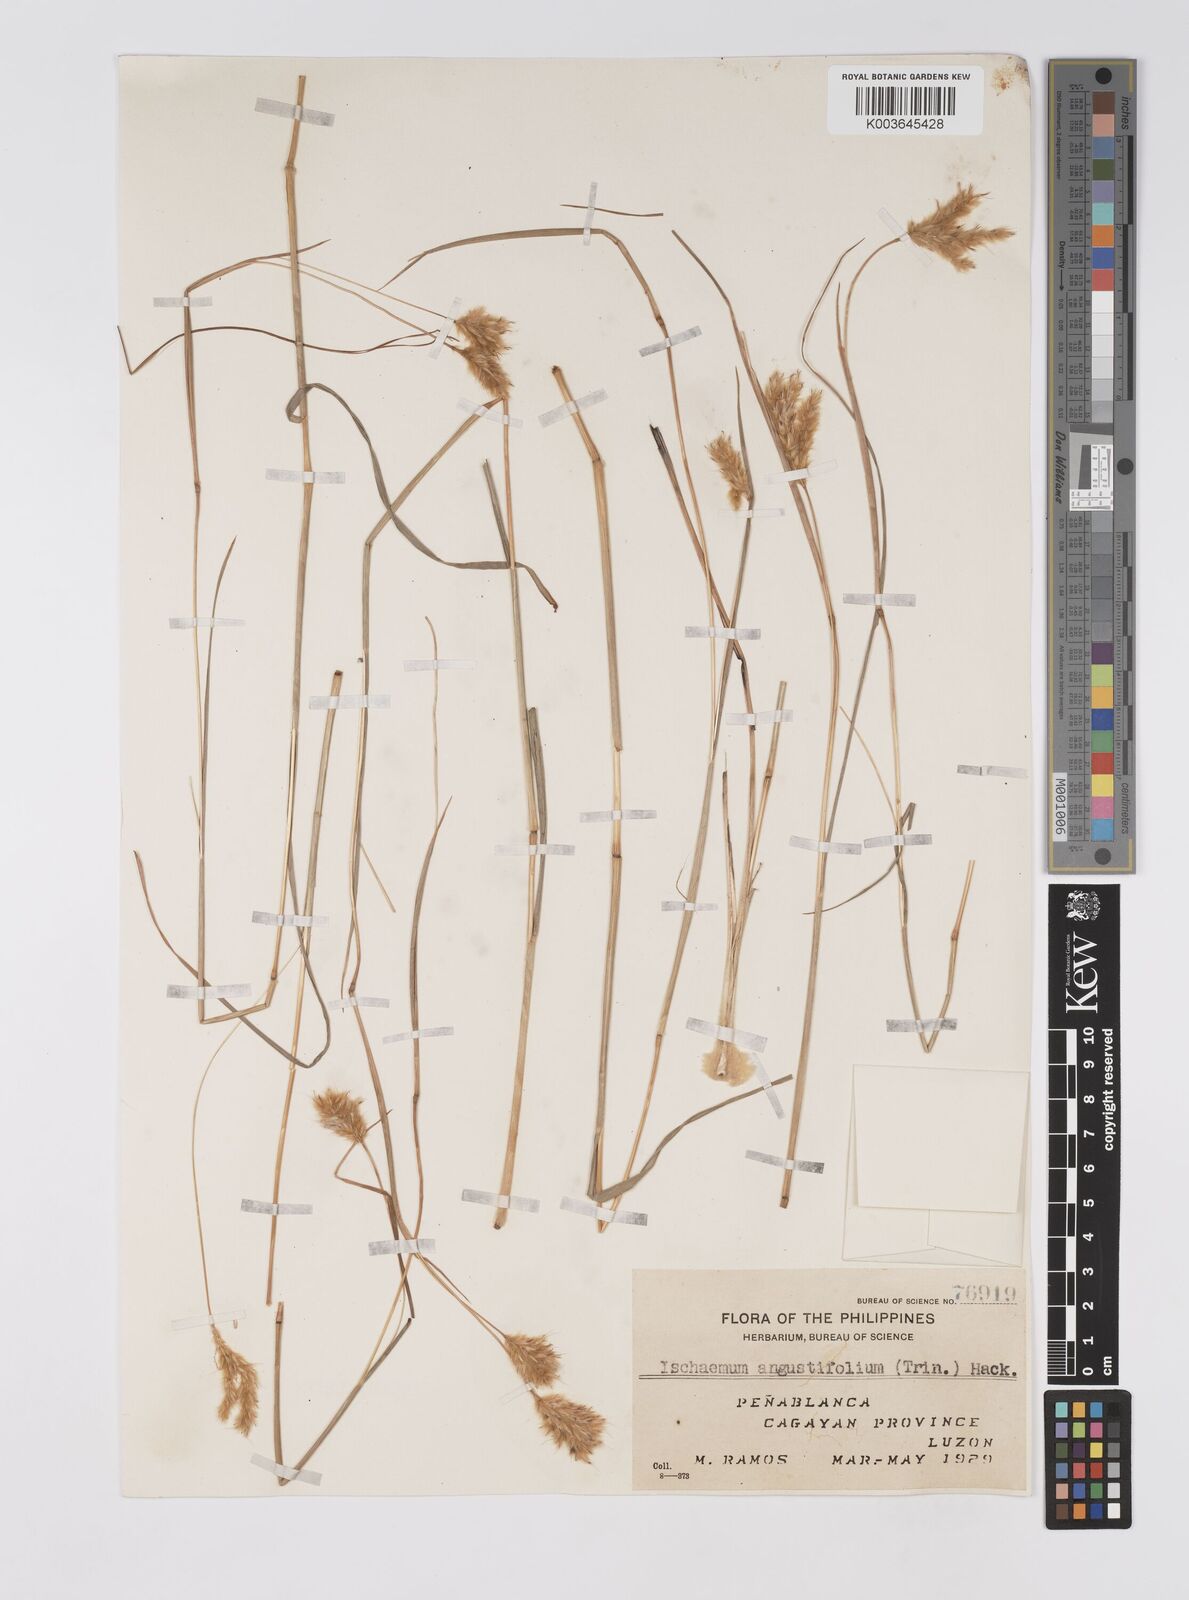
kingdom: Plantae
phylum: Tracheophyta
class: Liliopsida
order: Poales
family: Poaceae
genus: Eulaliopsis
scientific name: Eulaliopsis binata
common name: Baib grass
